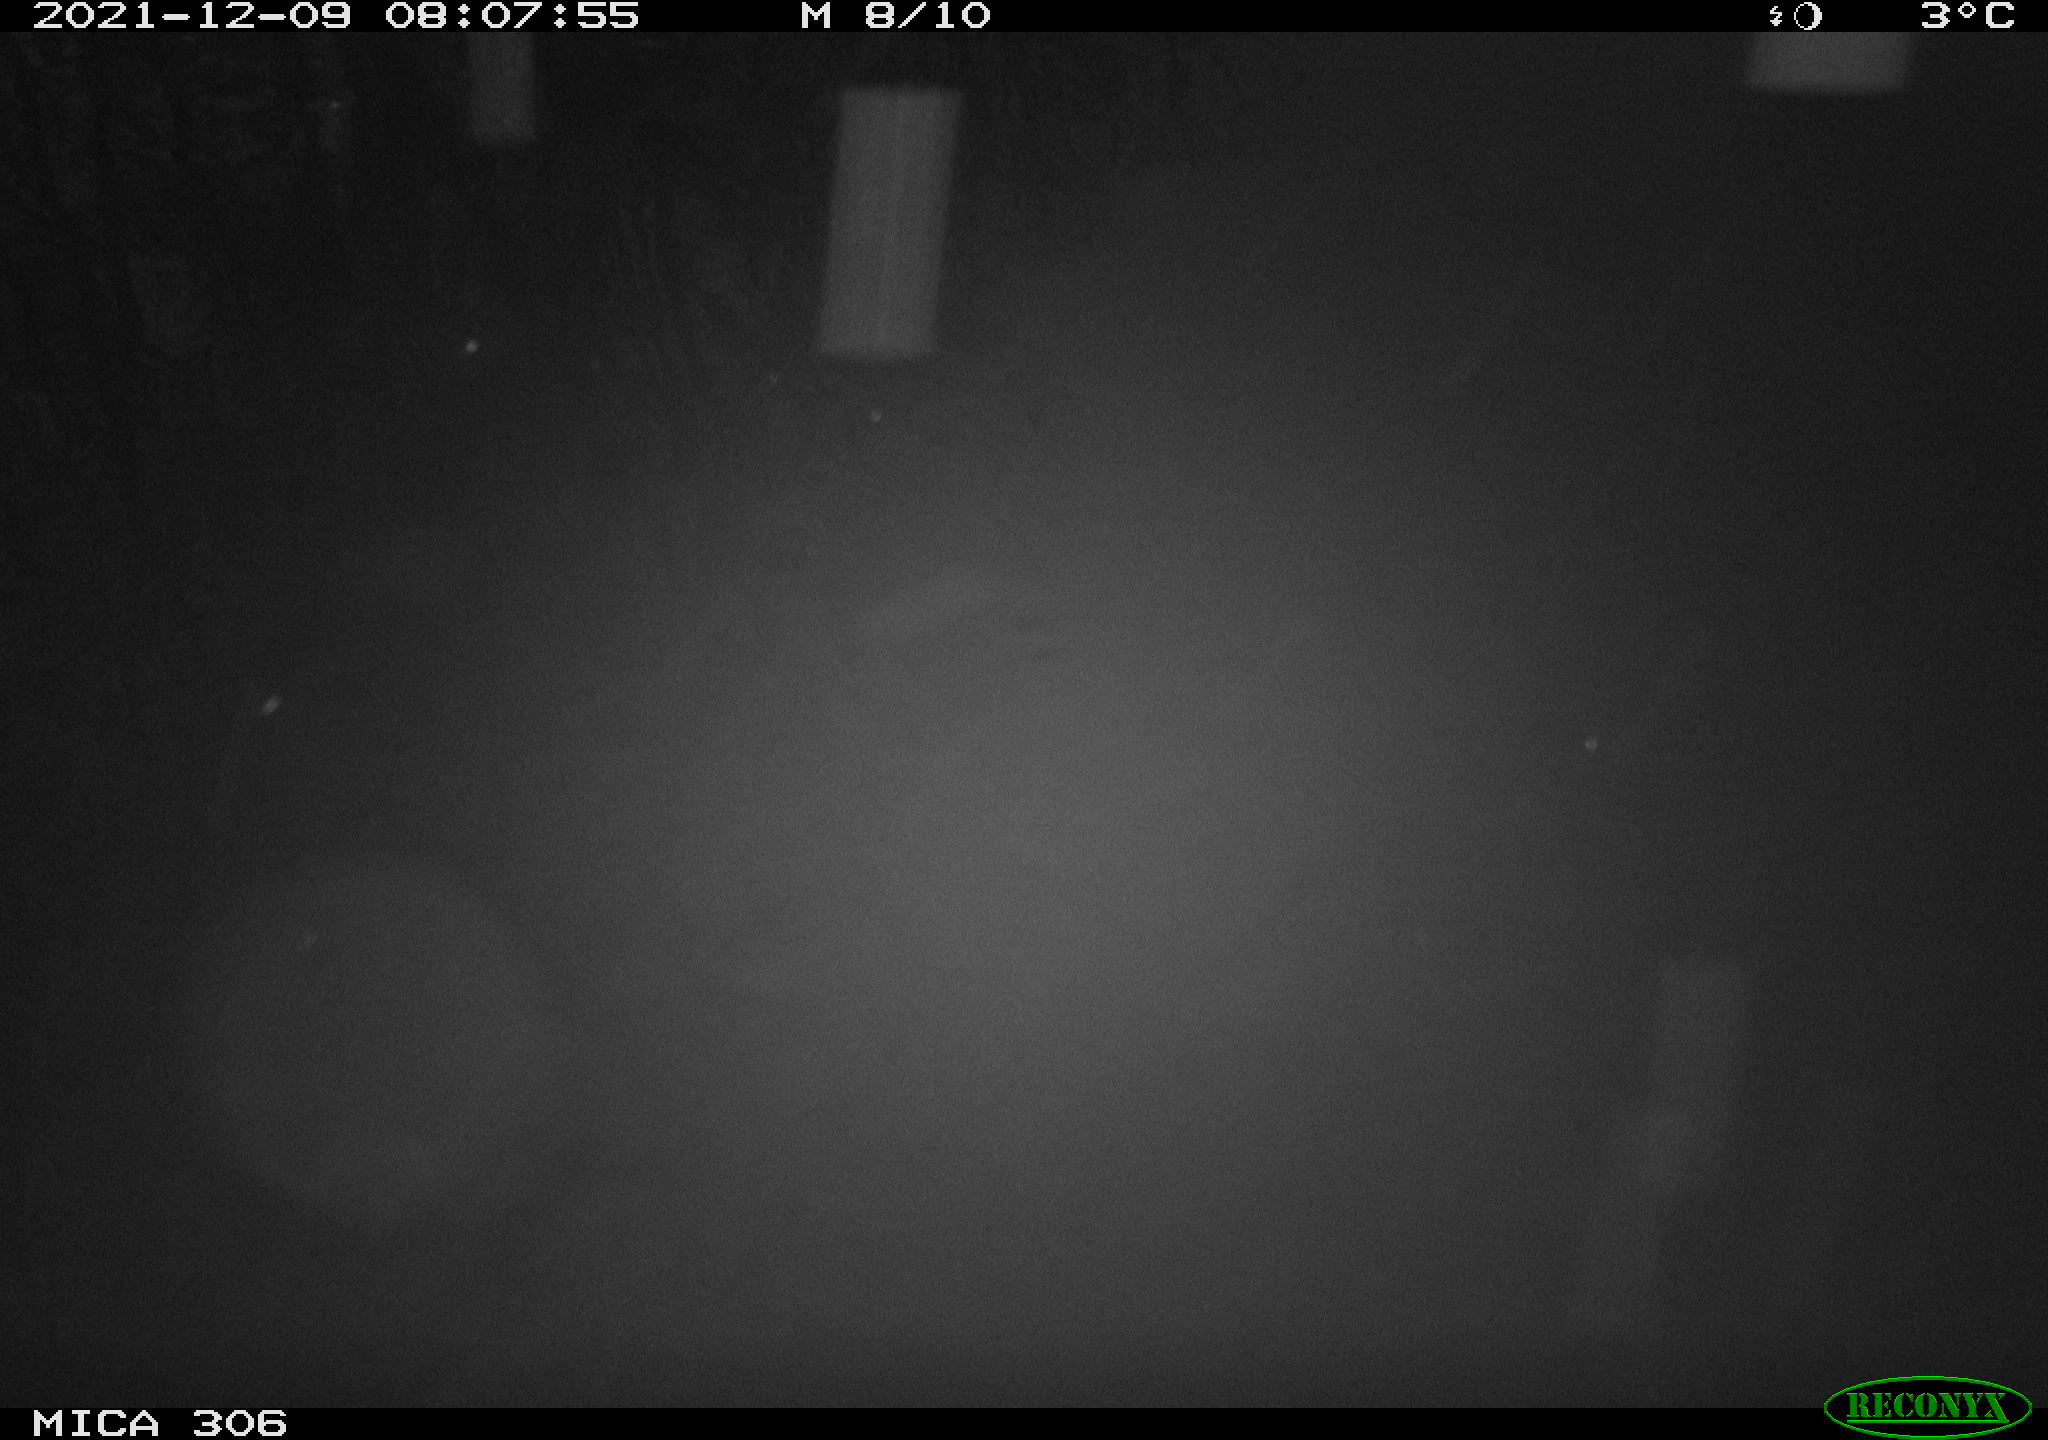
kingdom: Animalia
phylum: Chordata
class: Aves
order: Gruiformes
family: Rallidae
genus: Gallinula
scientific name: Gallinula chloropus
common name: Common moorhen
